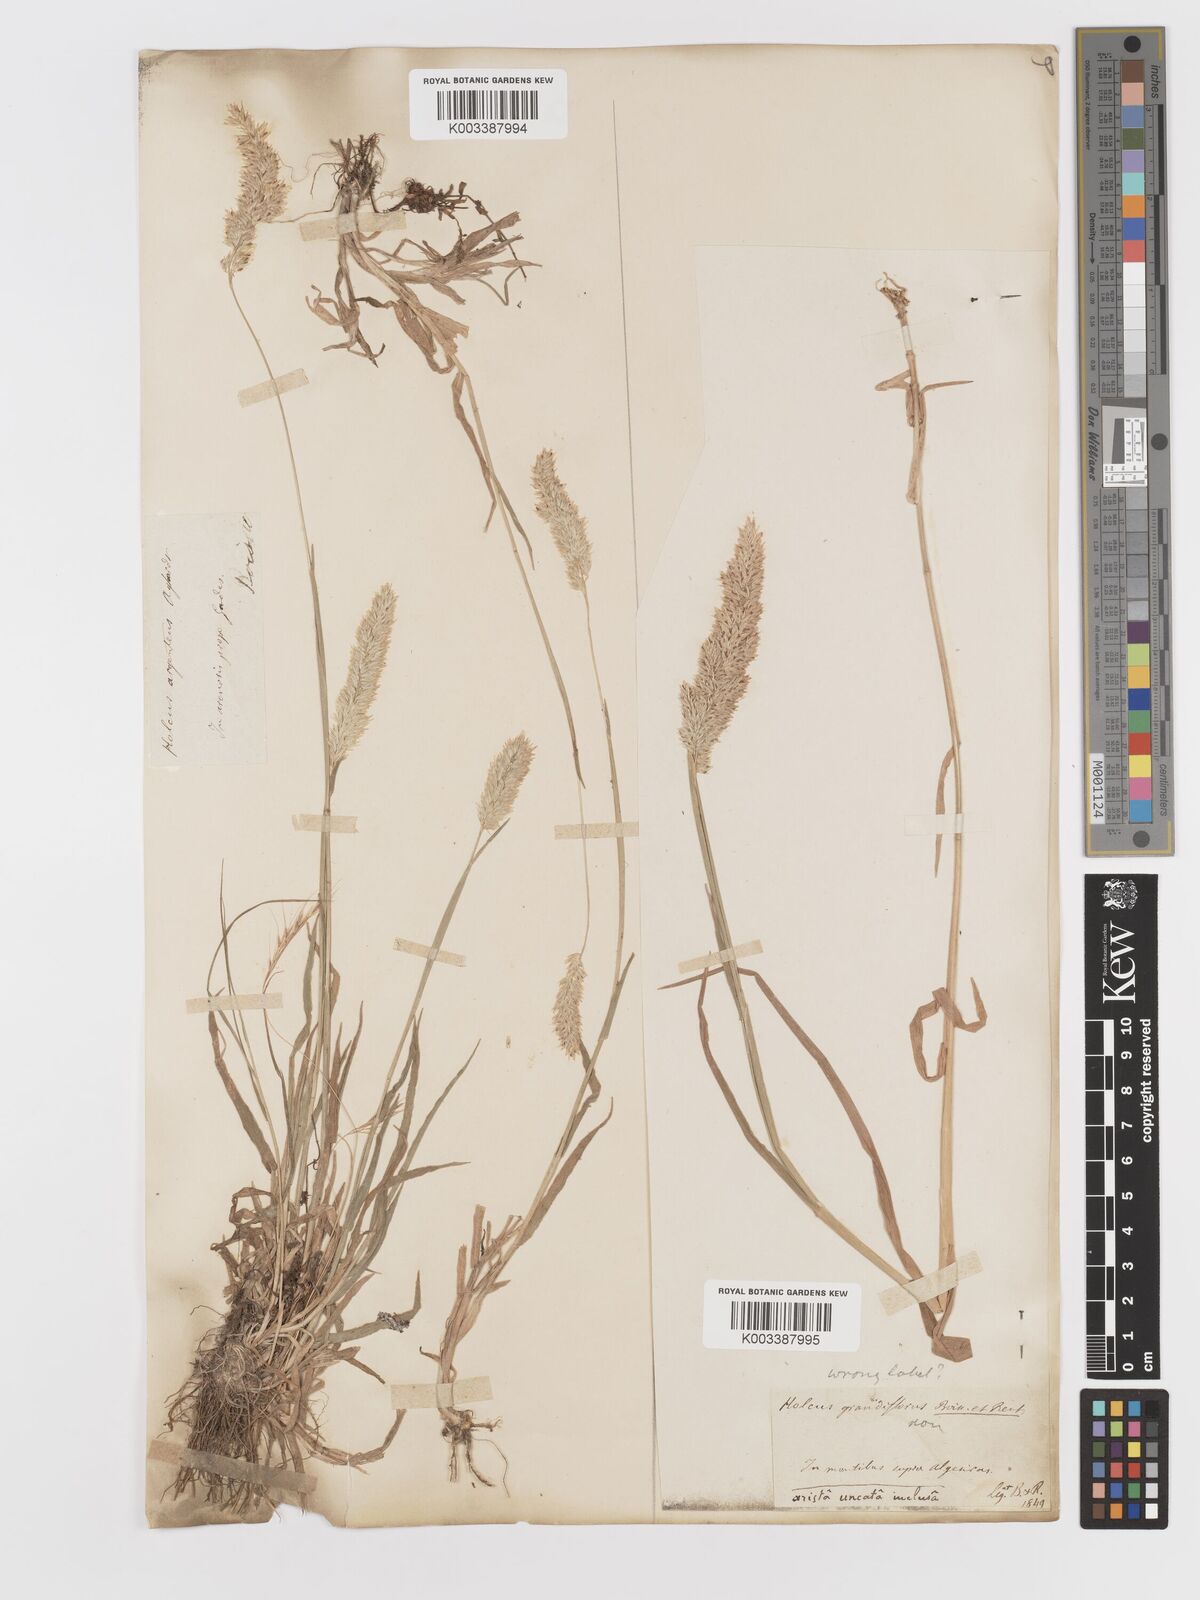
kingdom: Plantae
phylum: Tracheophyta
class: Liliopsida
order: Poales
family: Poaceae
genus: Holcus
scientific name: Holcus lanatus
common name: Yorkshire-fog
